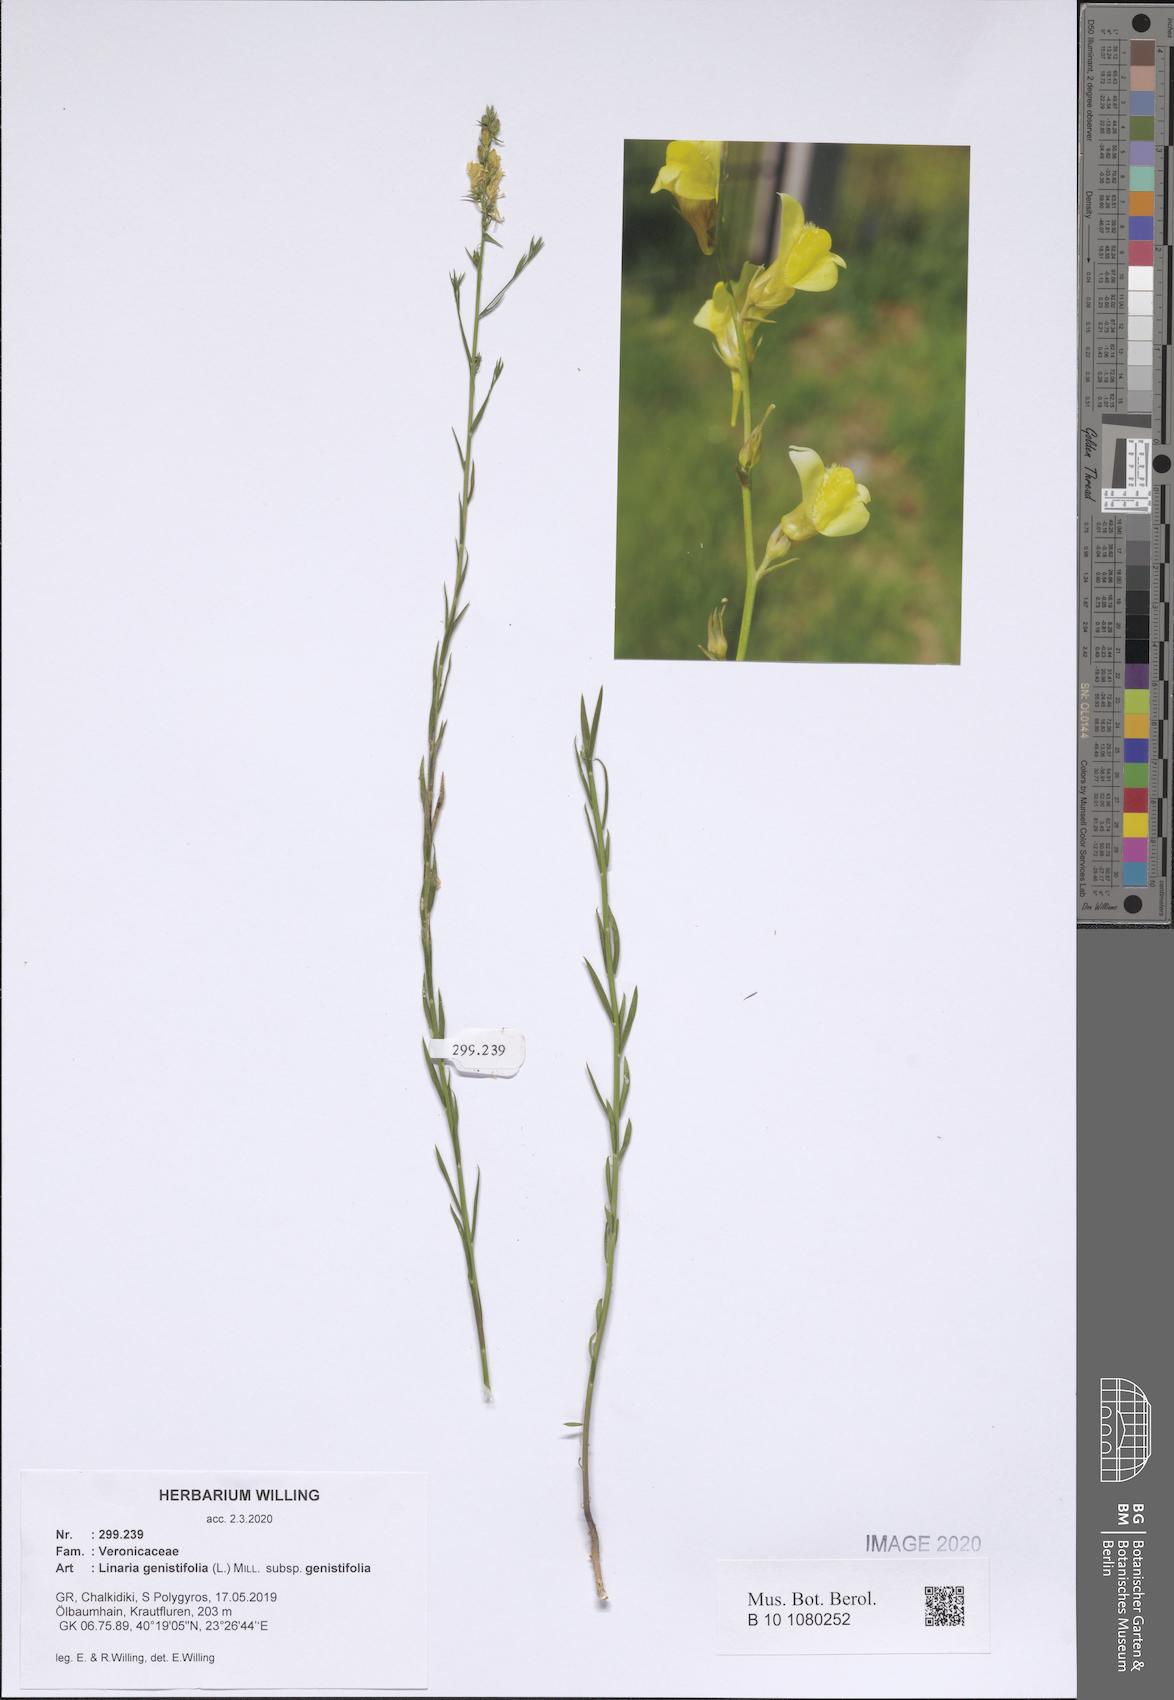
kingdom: Plantae
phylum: Tracheophyta
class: Magnoliopsida
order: Lamiales
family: Plantaginaceae
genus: Linaria
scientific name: Linaria genistifolia
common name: Broomleaf toadflax
